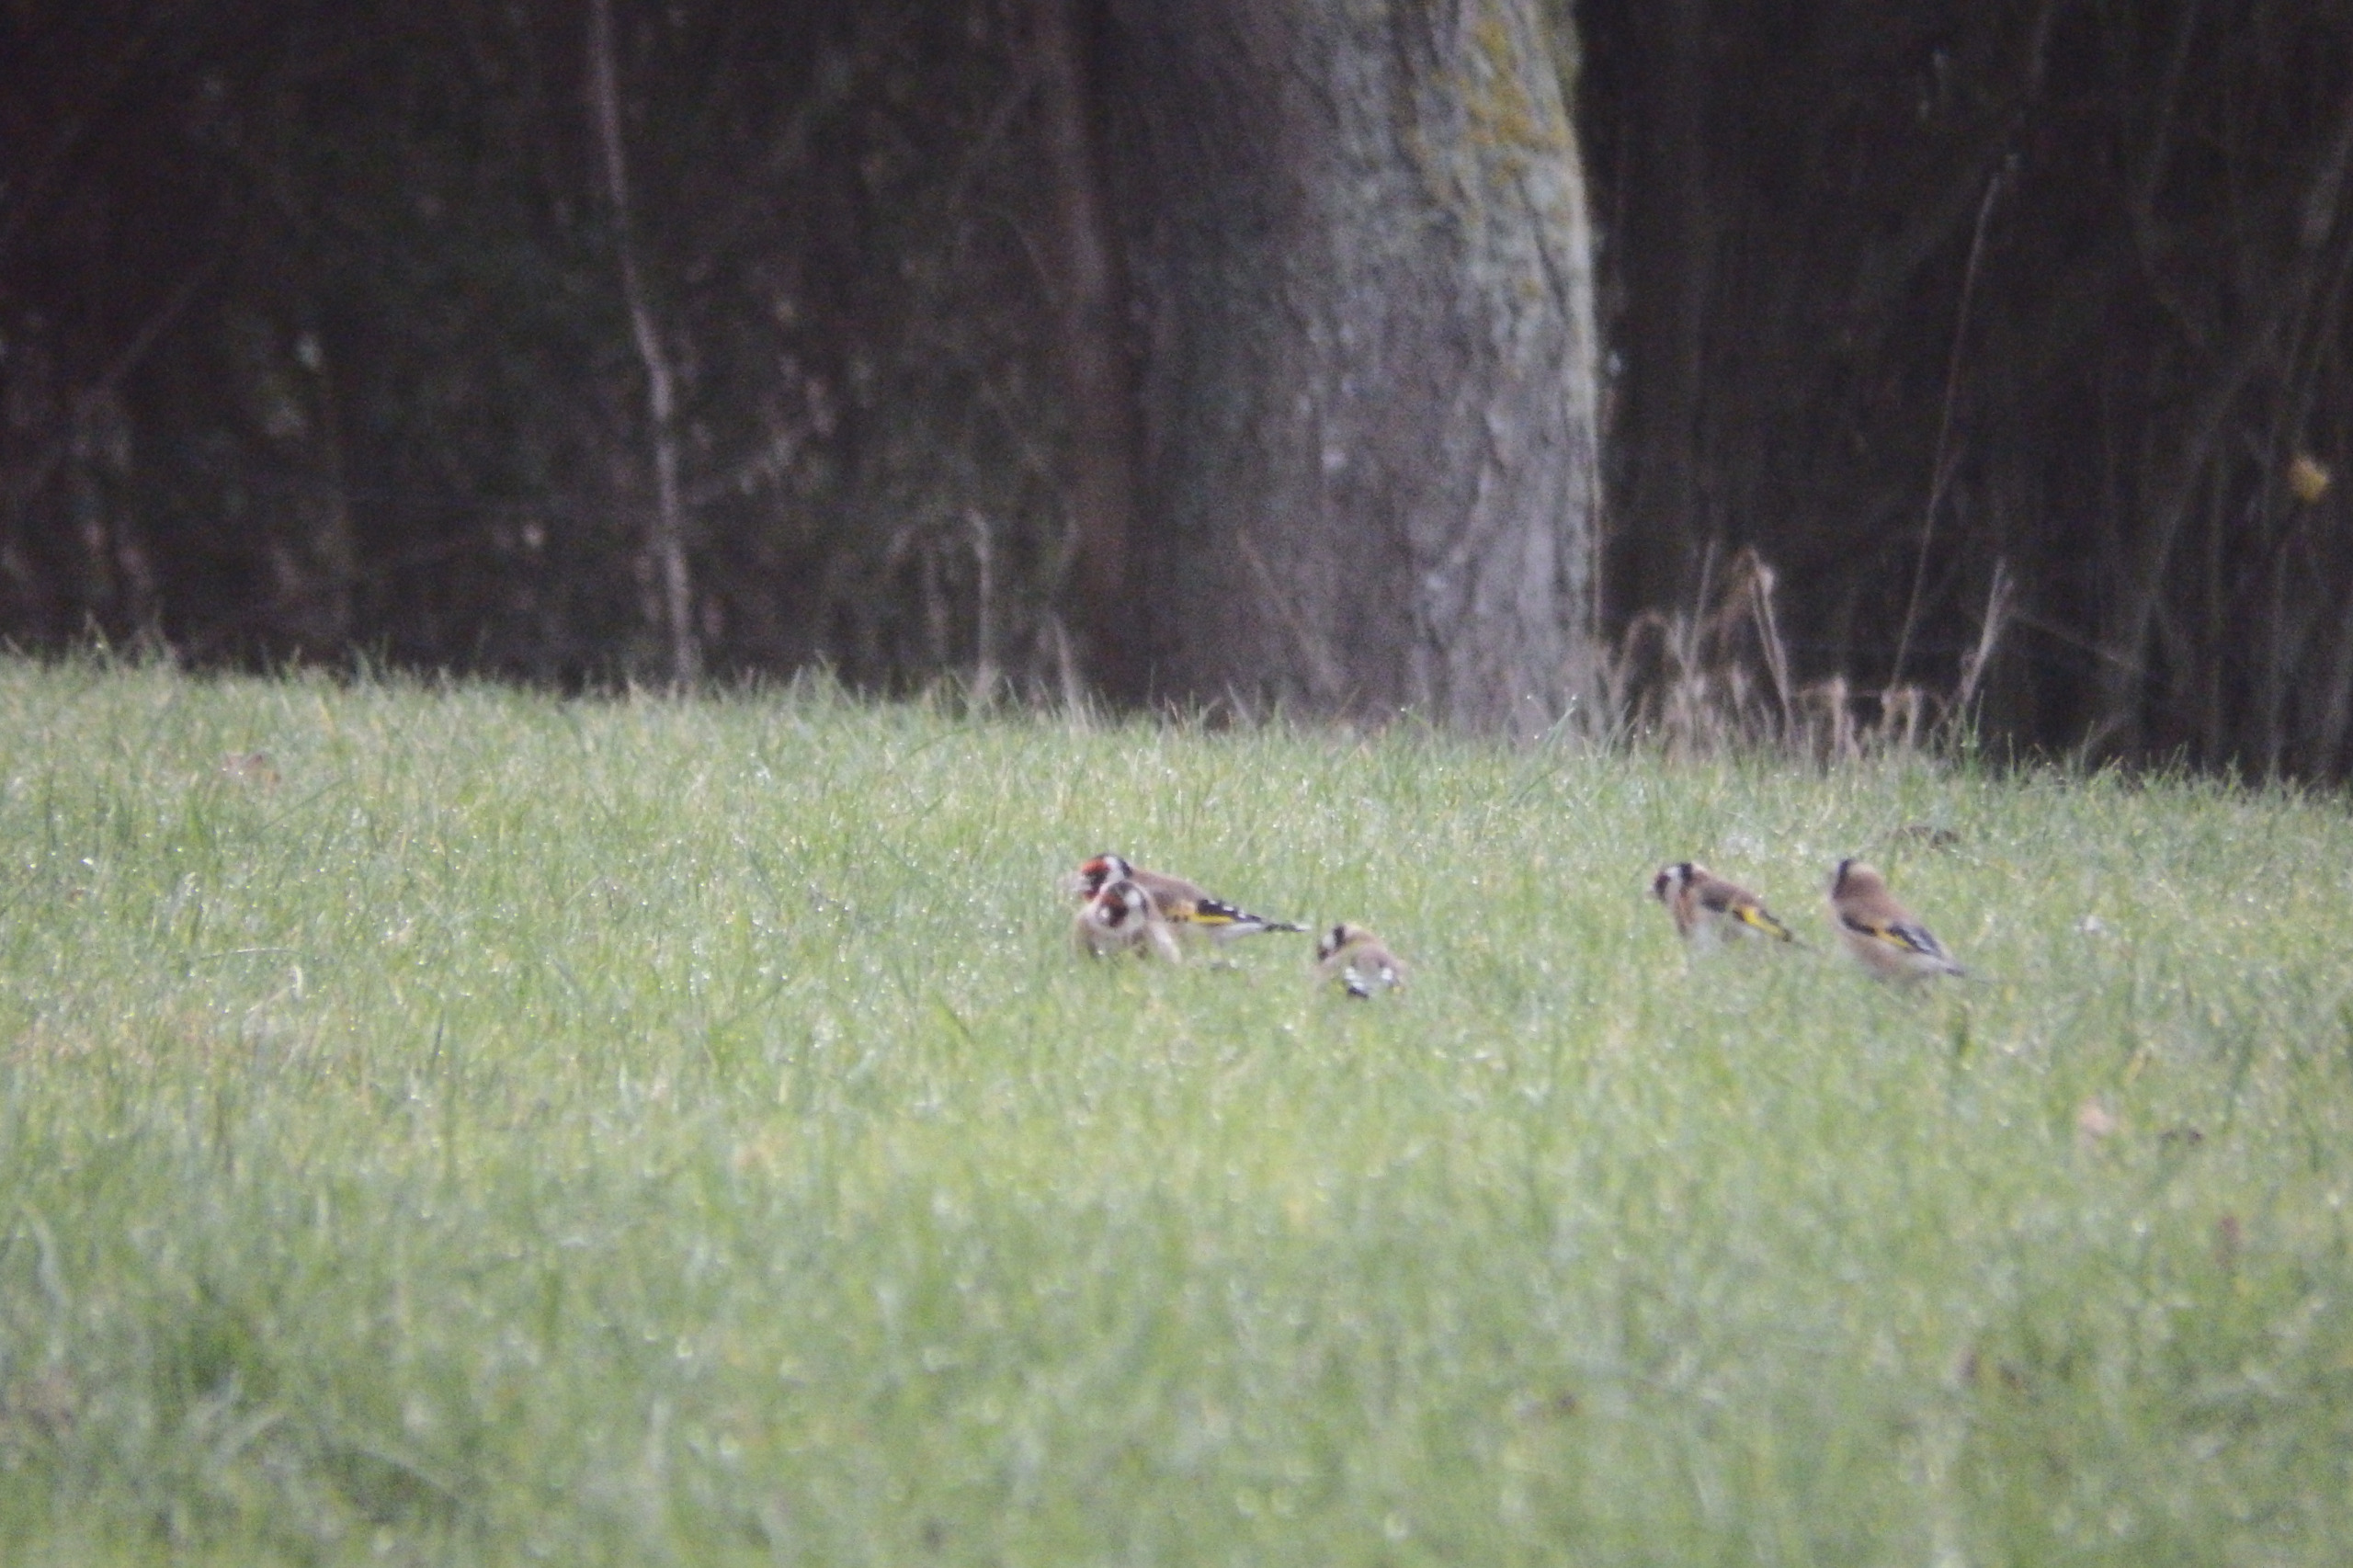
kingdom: Animalia
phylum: Chordata
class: Aves
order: Passeriformes
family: Fringillidae
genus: Carduelis
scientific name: Carduelis carduelis
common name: Stillits
